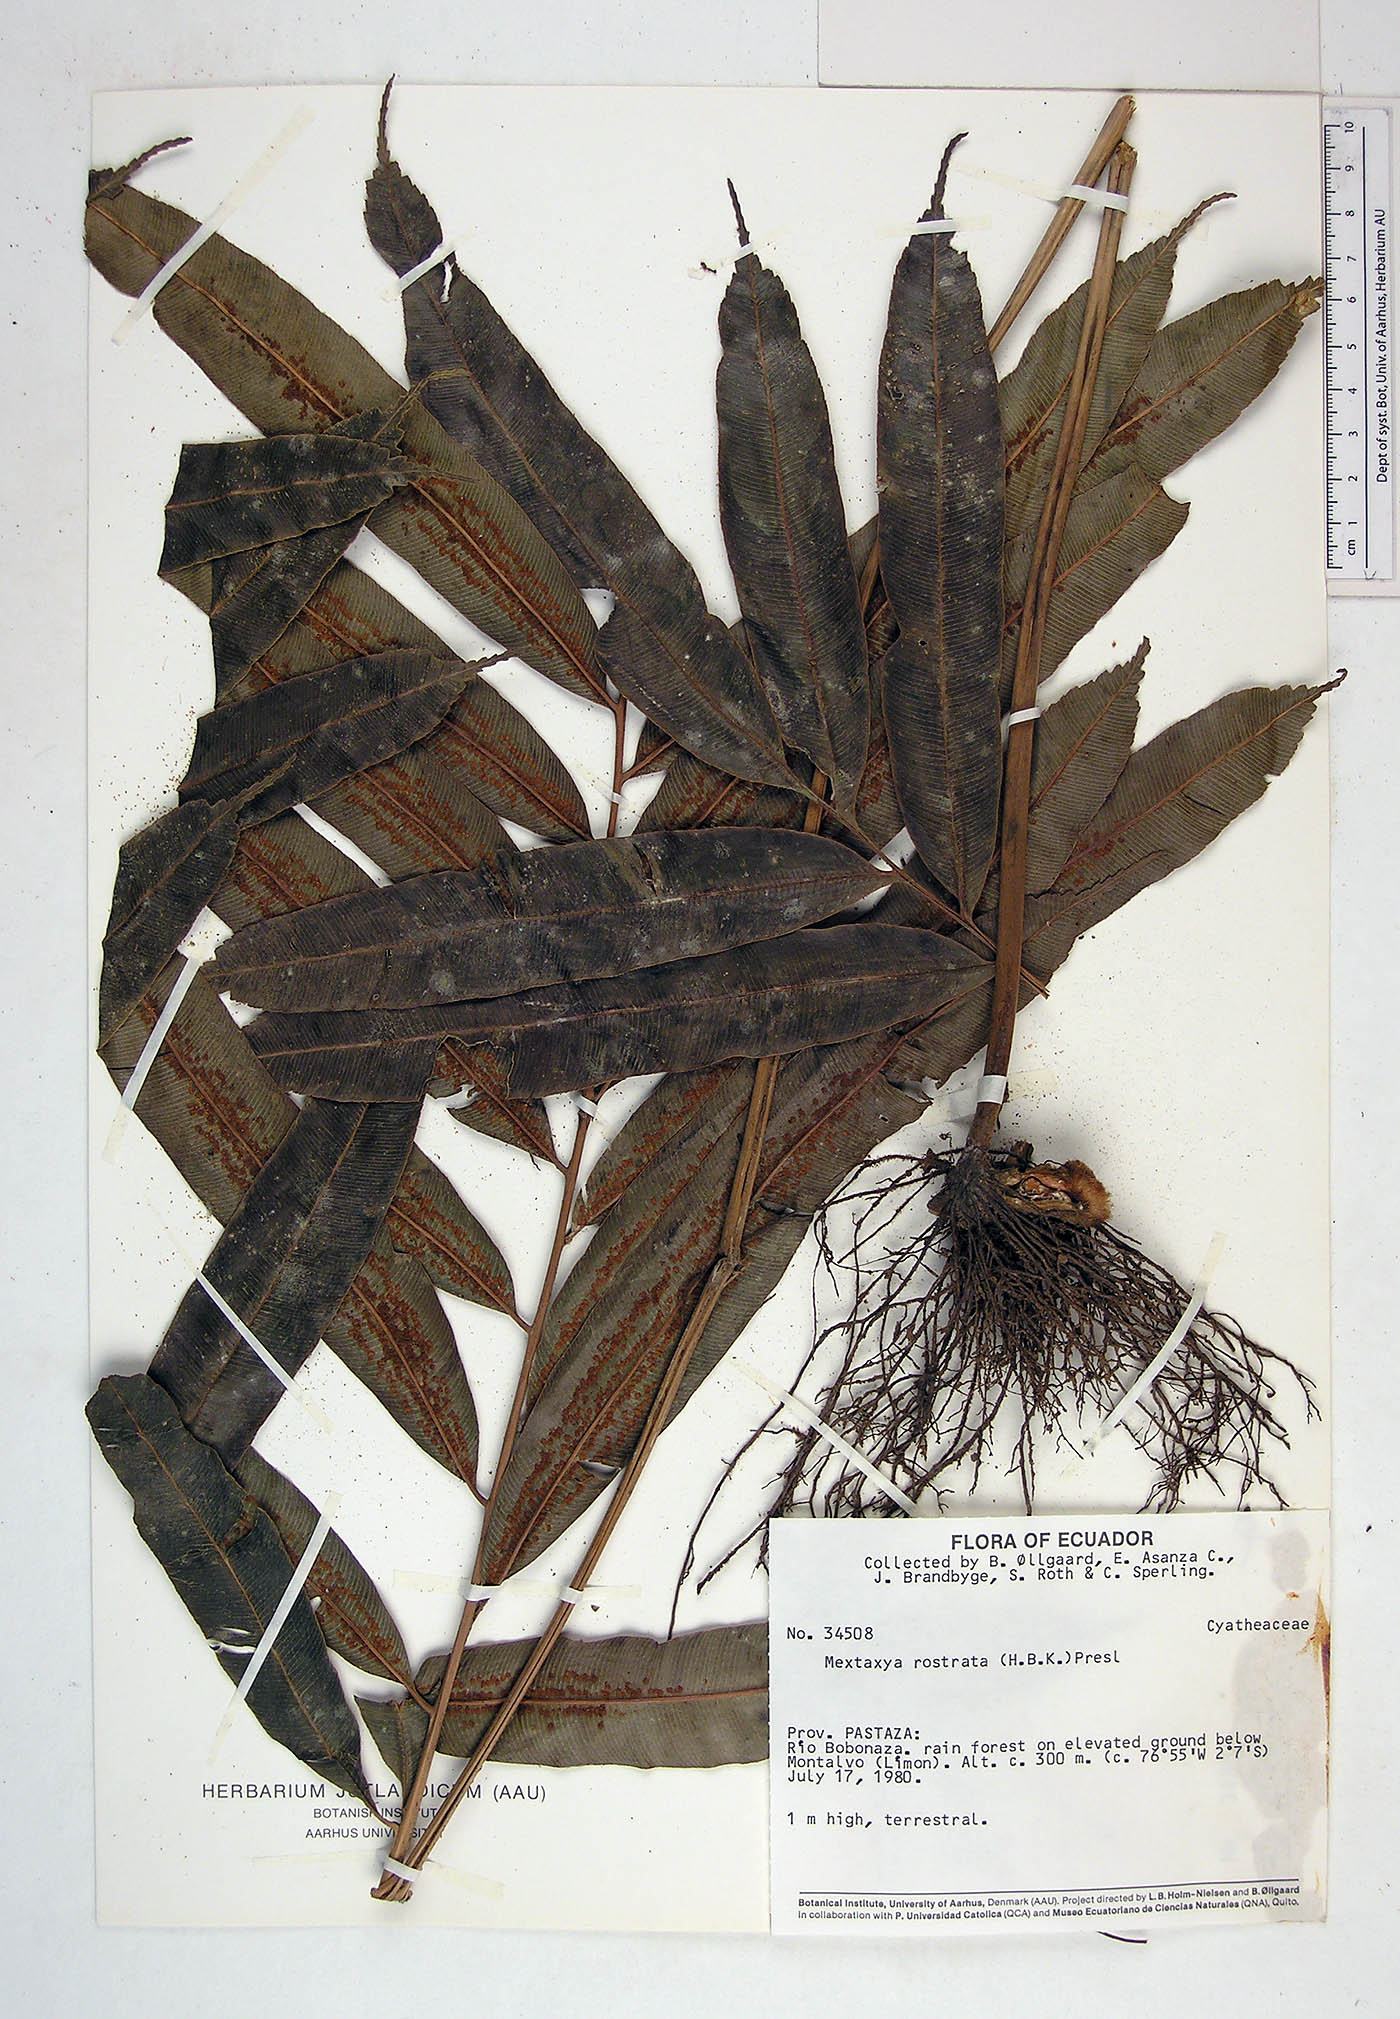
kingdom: Plantae
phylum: Tracheophyta
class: Polypodiopsida
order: Cyatheales
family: Metaxyaceae
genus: Metaxya
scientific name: Metaxya parkeri
